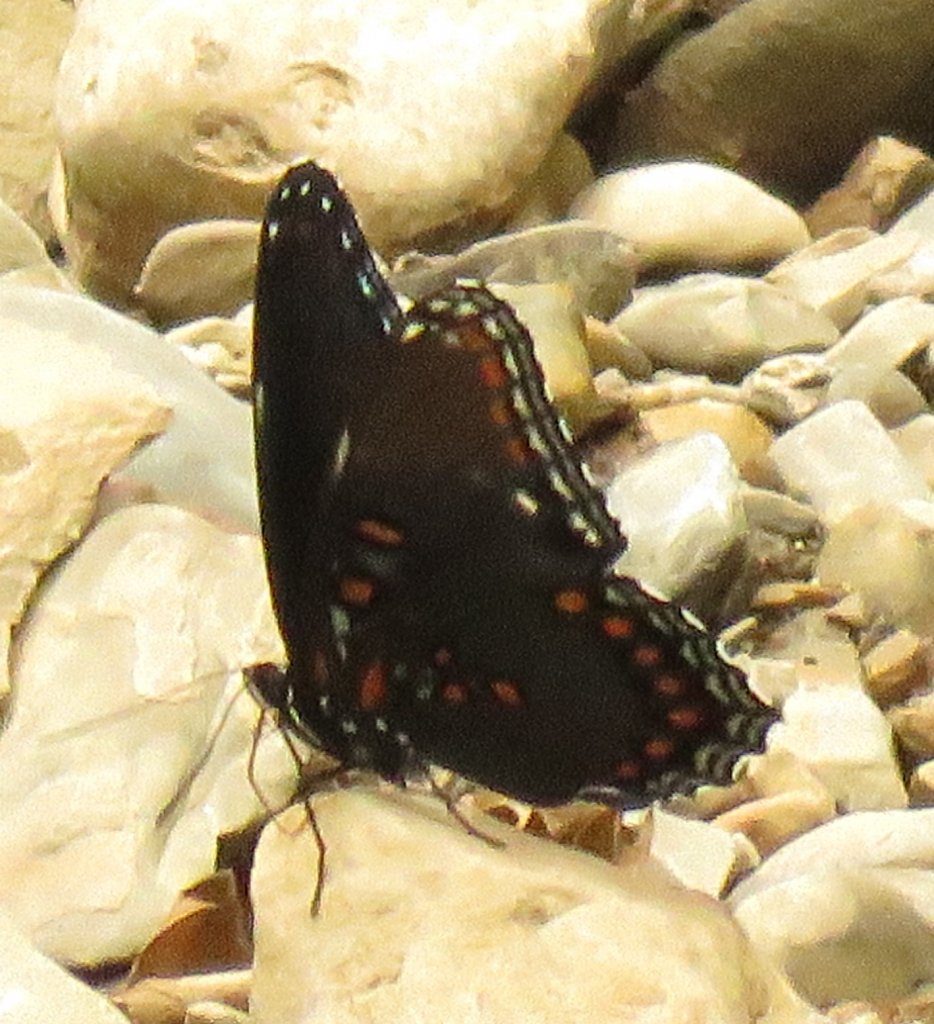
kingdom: Animalia
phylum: Arthropoda
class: Insecta
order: Lepidoptera
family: Nymphalidae
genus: Limenitis
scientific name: Limenitis astyanax
